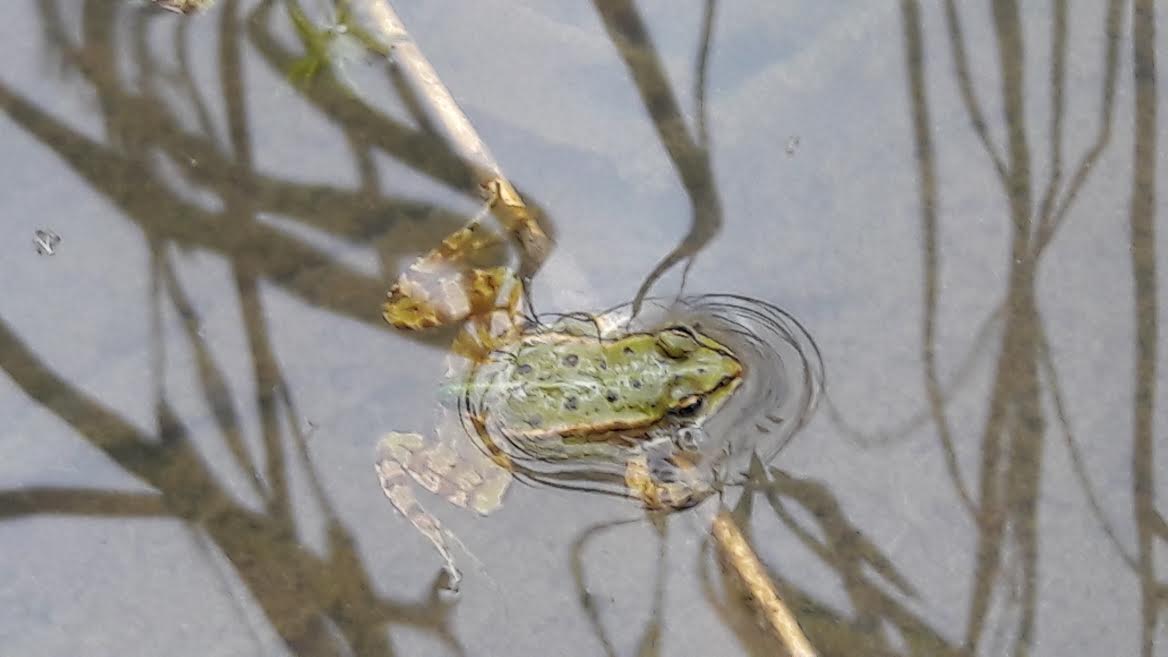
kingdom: Animalia
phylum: Chordata
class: Amphibia
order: Anura
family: Ranidae
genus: Pelophylax
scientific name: Pelophylax lessonae
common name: Pool frog
